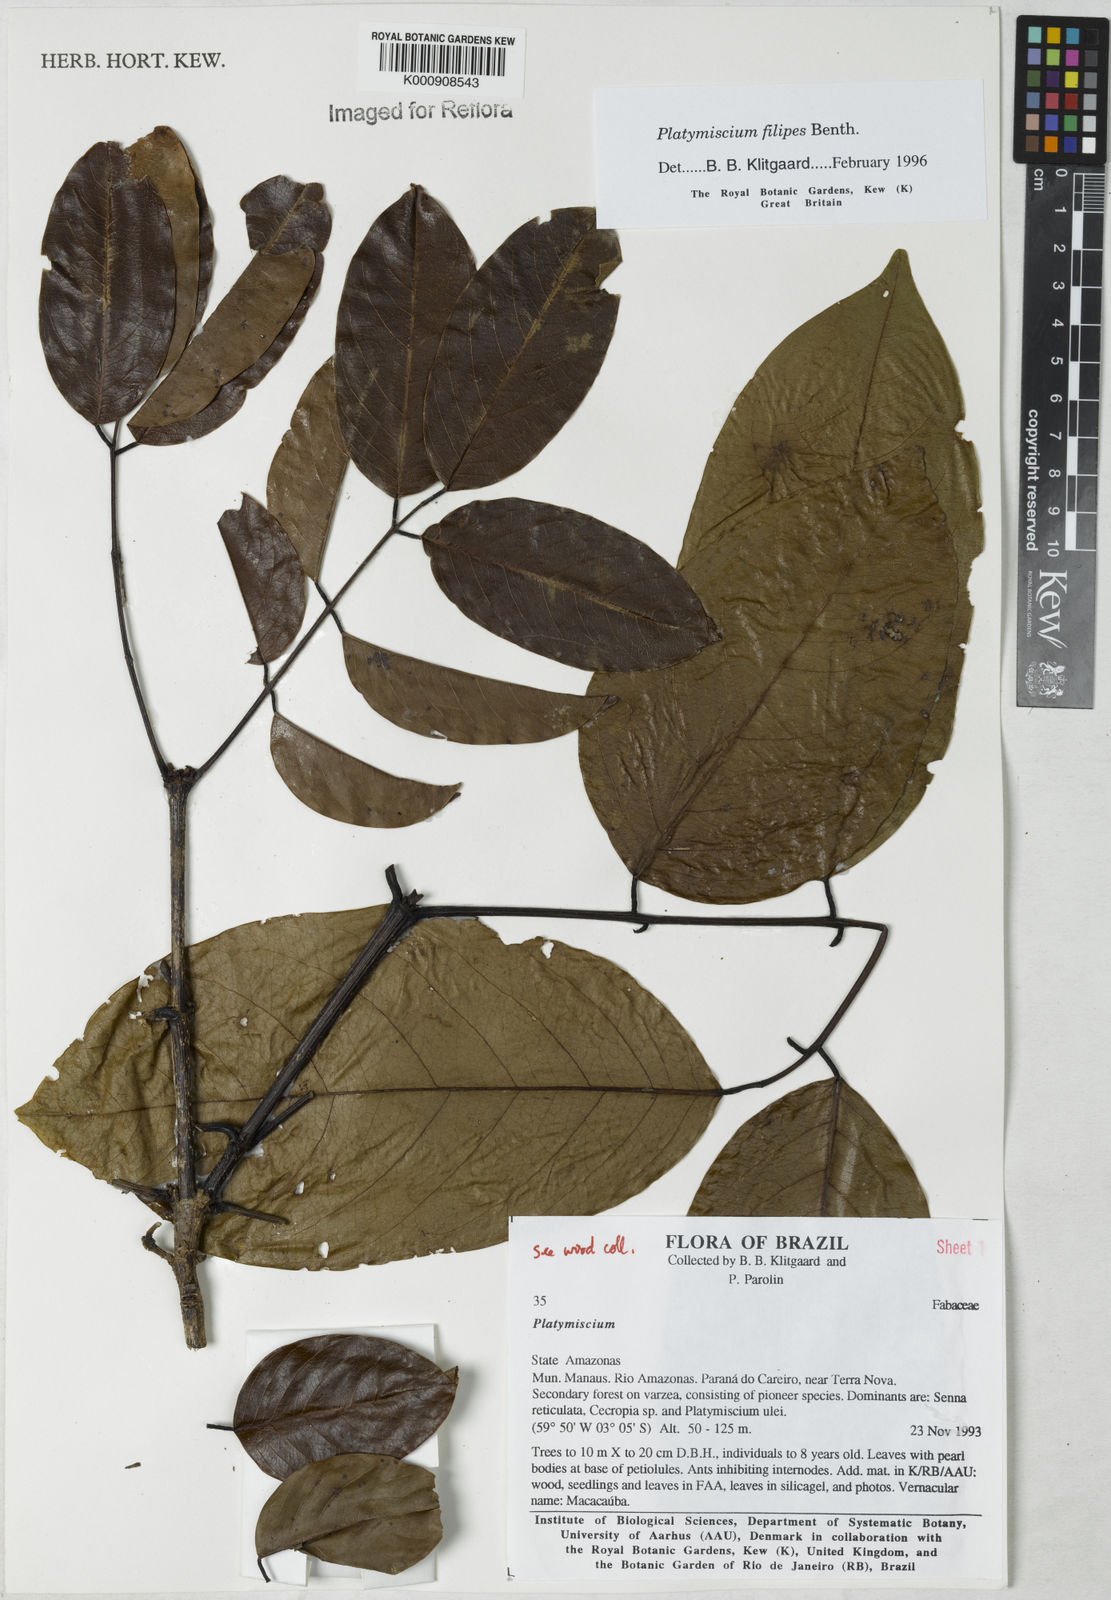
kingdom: Plantae
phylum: Tracheophyta
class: Magnoliopsida
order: Fabales
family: Fabaceae
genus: Platymiscium
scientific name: Platymiscium filipes
